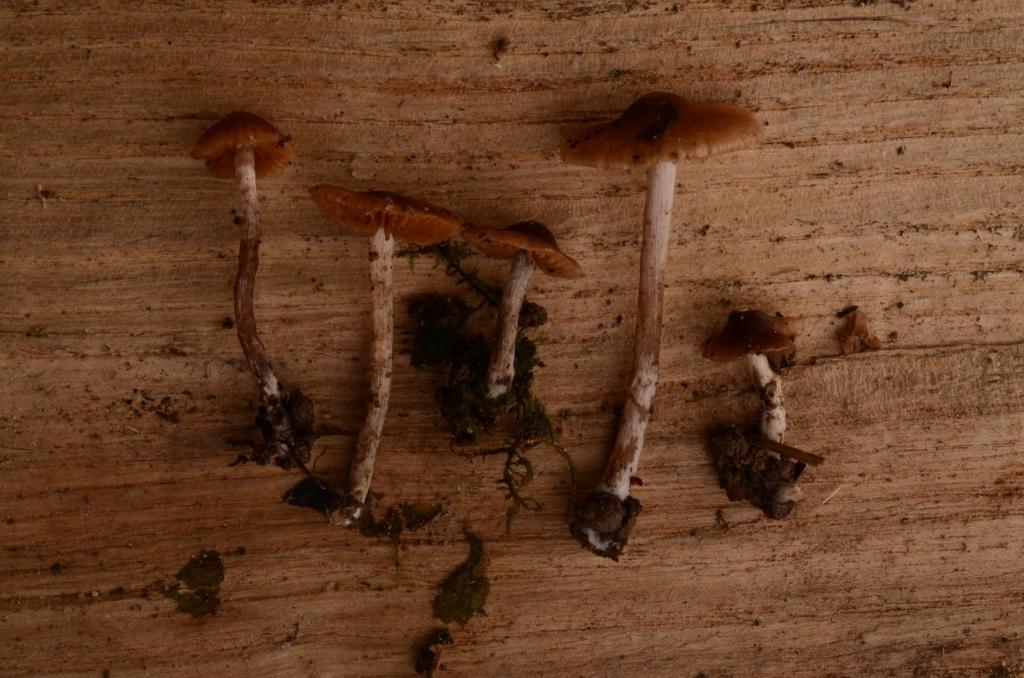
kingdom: Fungi
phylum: Basidiomycota
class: Agaricomycetes
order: Agaricales
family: Cortinariaceae
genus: Cortinarius
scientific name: Cortinarius
